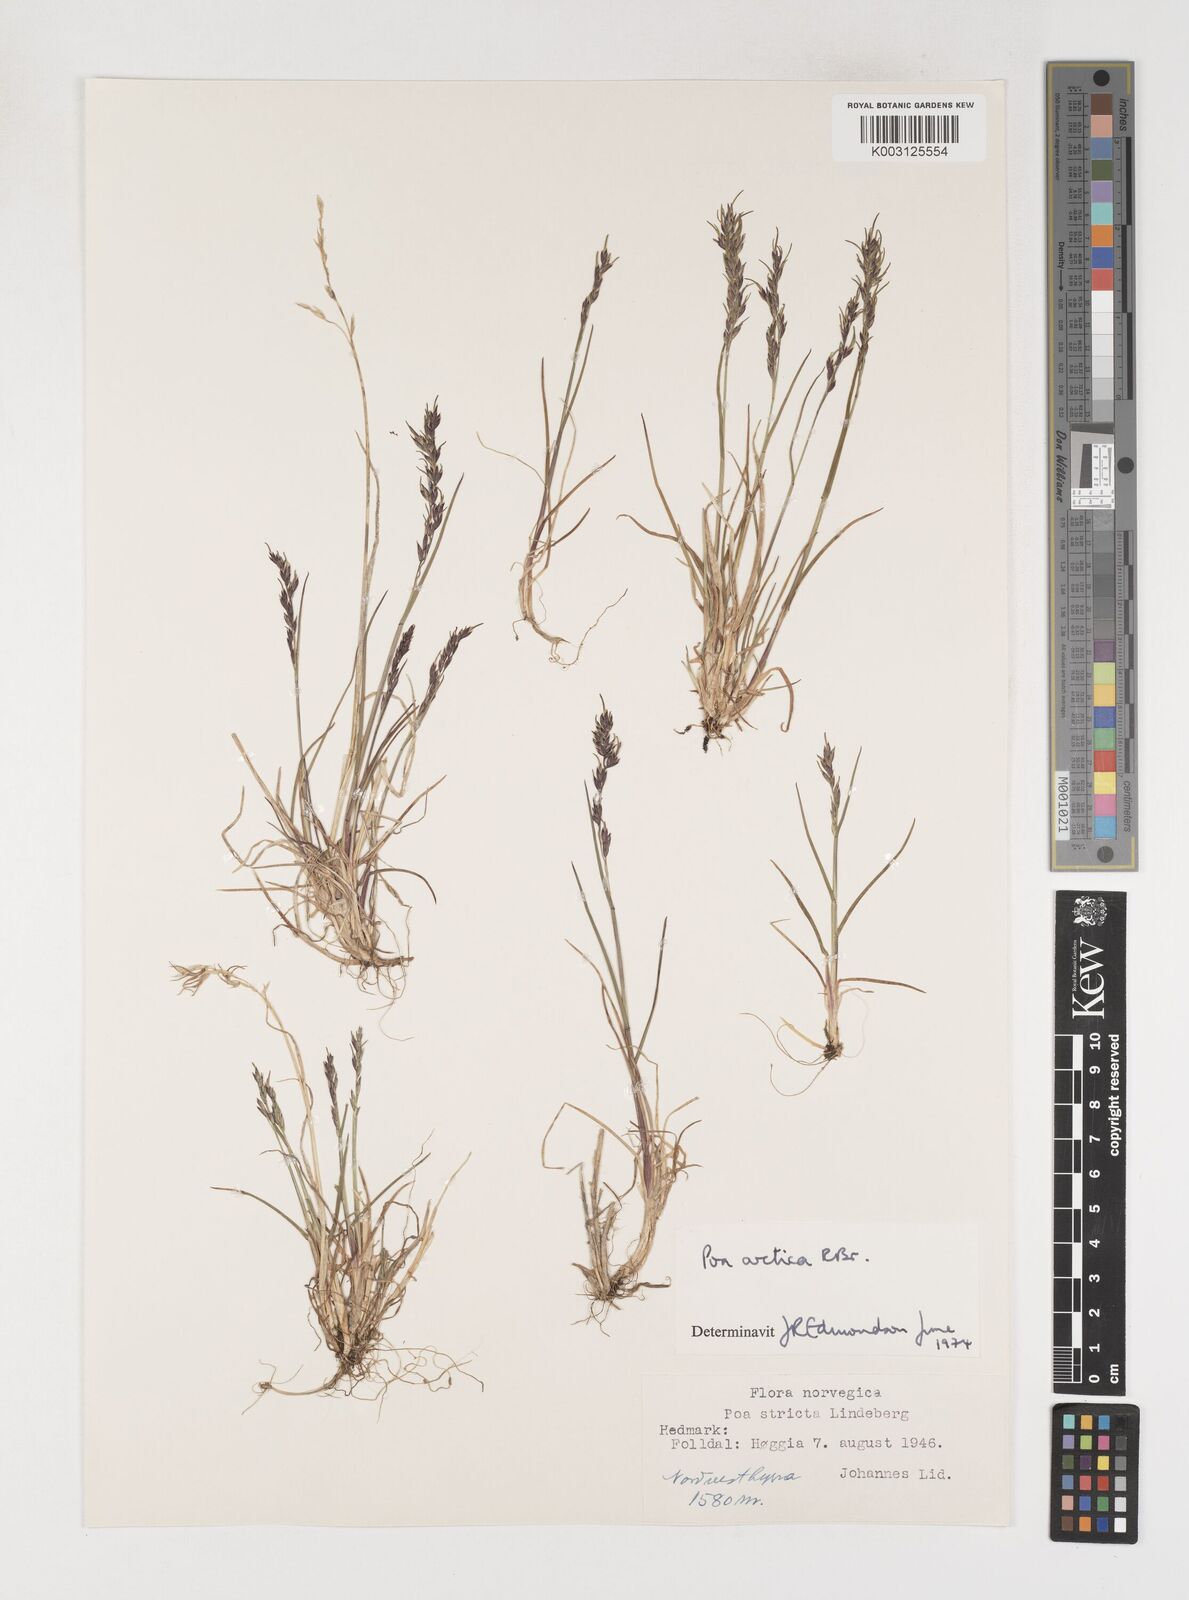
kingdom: Plantae
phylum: Tracheophyta
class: Liliopsida
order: Poales
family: Poaceae
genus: Poa
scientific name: Poa arctica
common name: Arctic bluegrass
